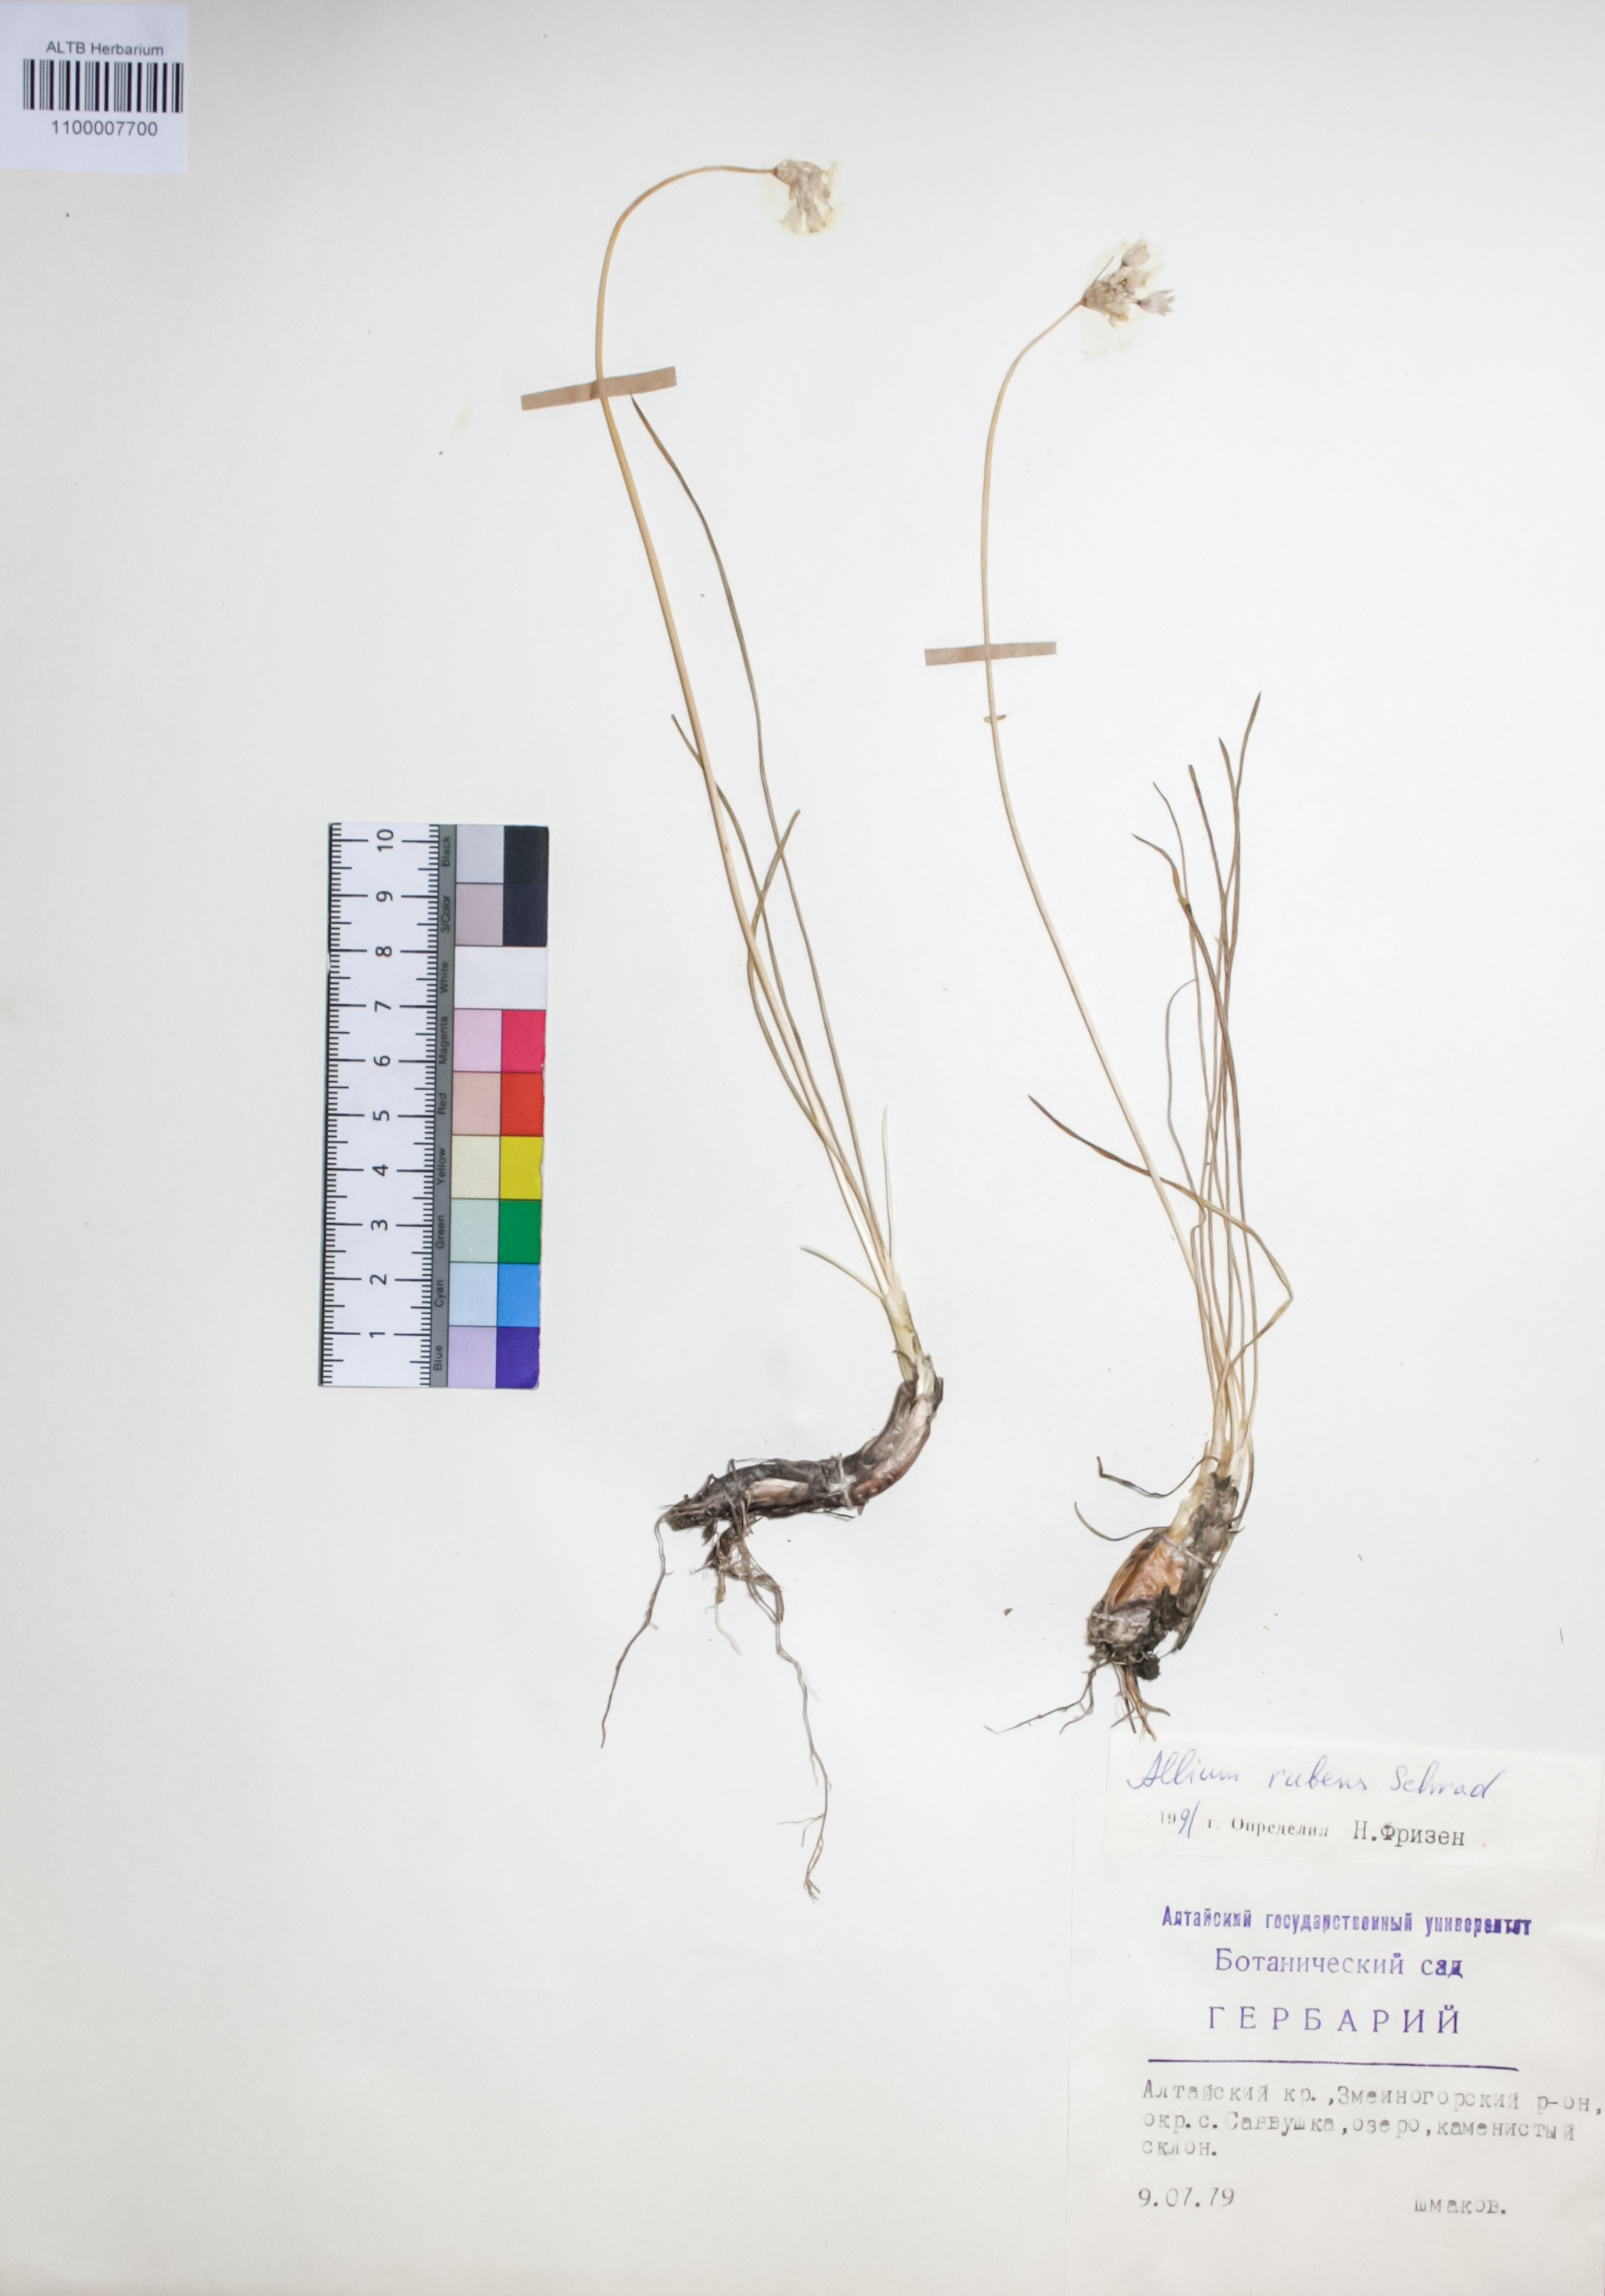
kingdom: Plantae
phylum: Tracheophyta
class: Liliopsida
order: Asparagales
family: Amaryllidaceae
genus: Allium
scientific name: Allium rubens
